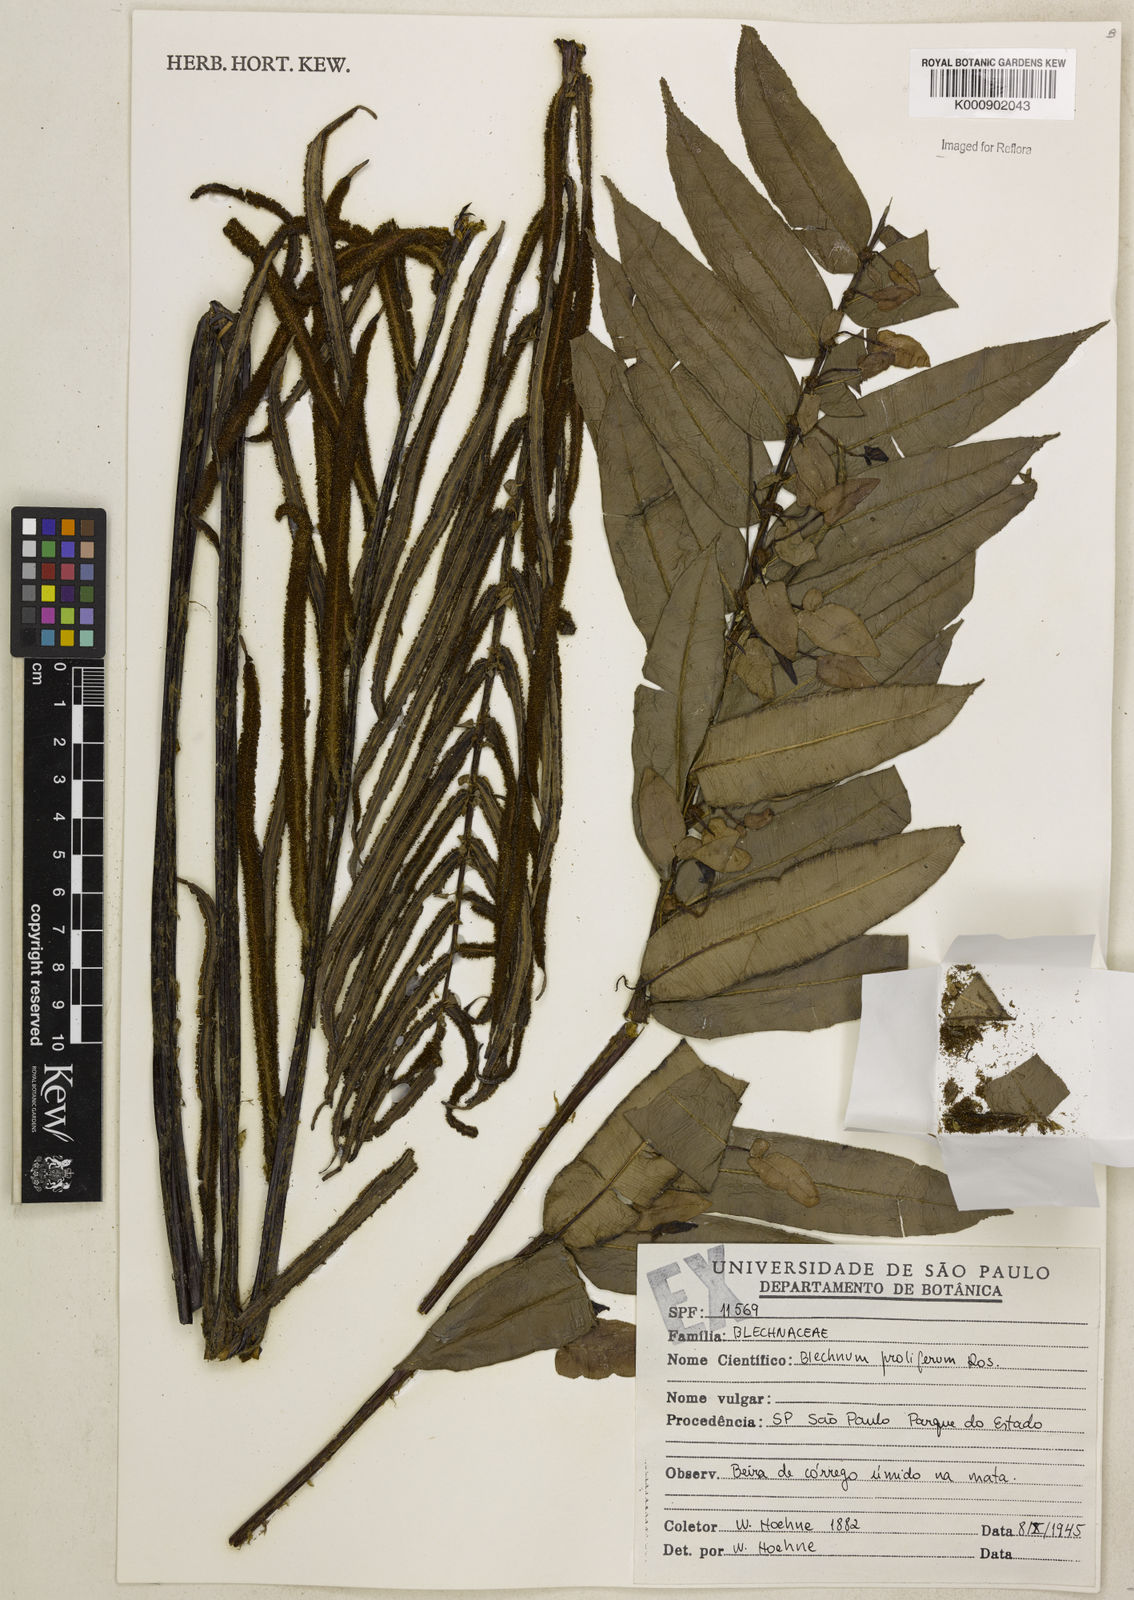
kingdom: Plantae
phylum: Tracheophyta
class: Polypodiopsida
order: Polypodiales
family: Blechnaceae
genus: Parablechnum
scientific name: Parablechnum proliferum
